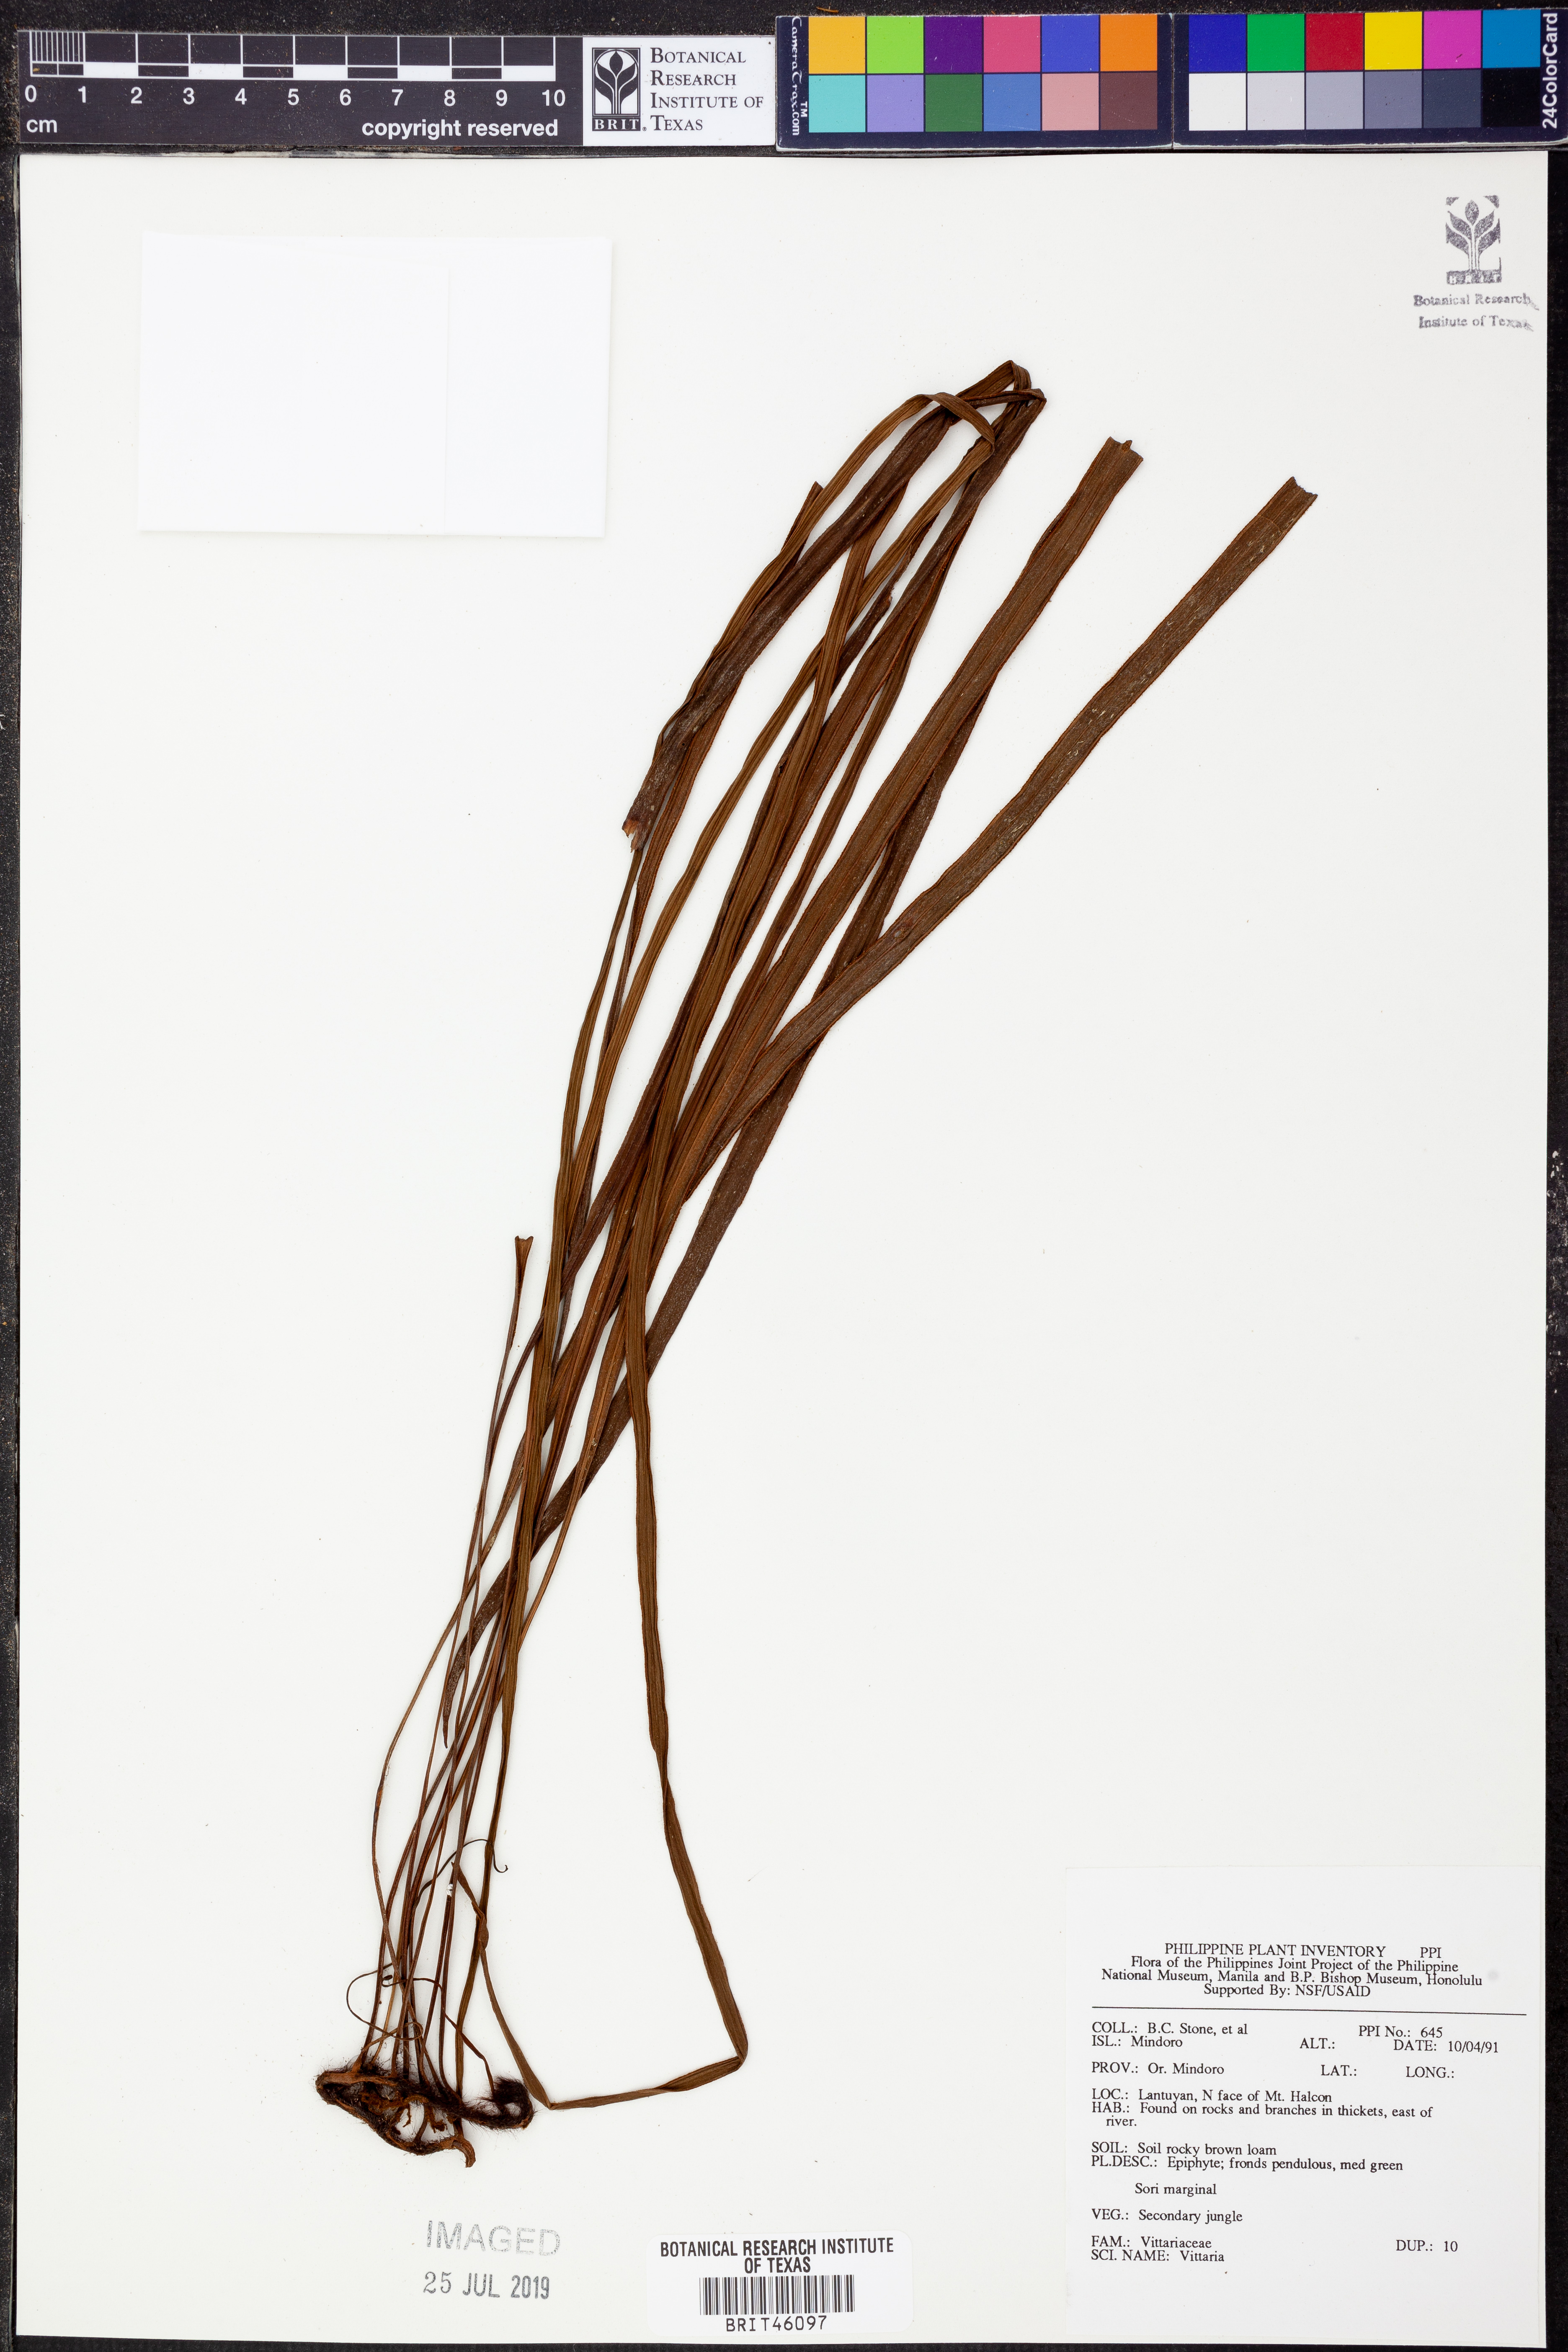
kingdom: Plantae
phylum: Tracheophyta
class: Polypodiopsida
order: Polypodiales
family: Pteridaceae
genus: Vittaria
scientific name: Vittaria
